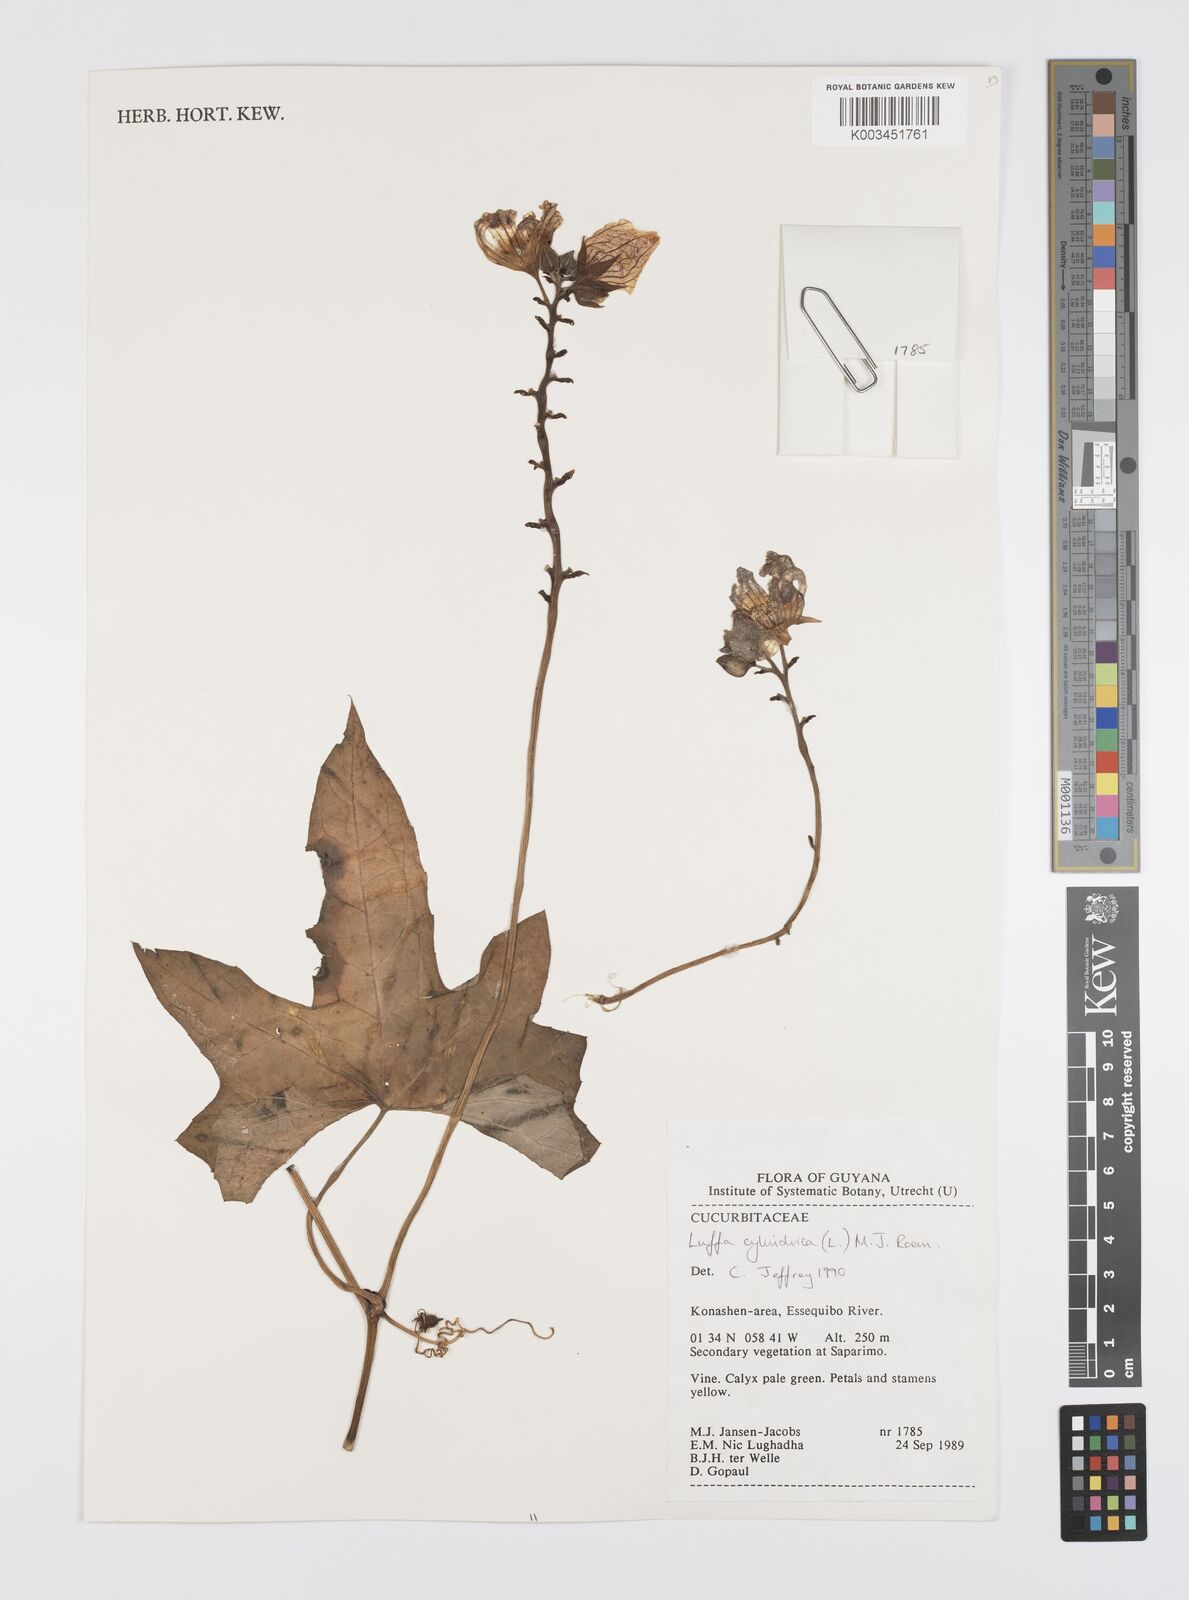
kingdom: Plantae
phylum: Tracheophyta
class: Magnoliopsida
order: Cucurbitales
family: Cucurbitaceae
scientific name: Cucurbitaceae
